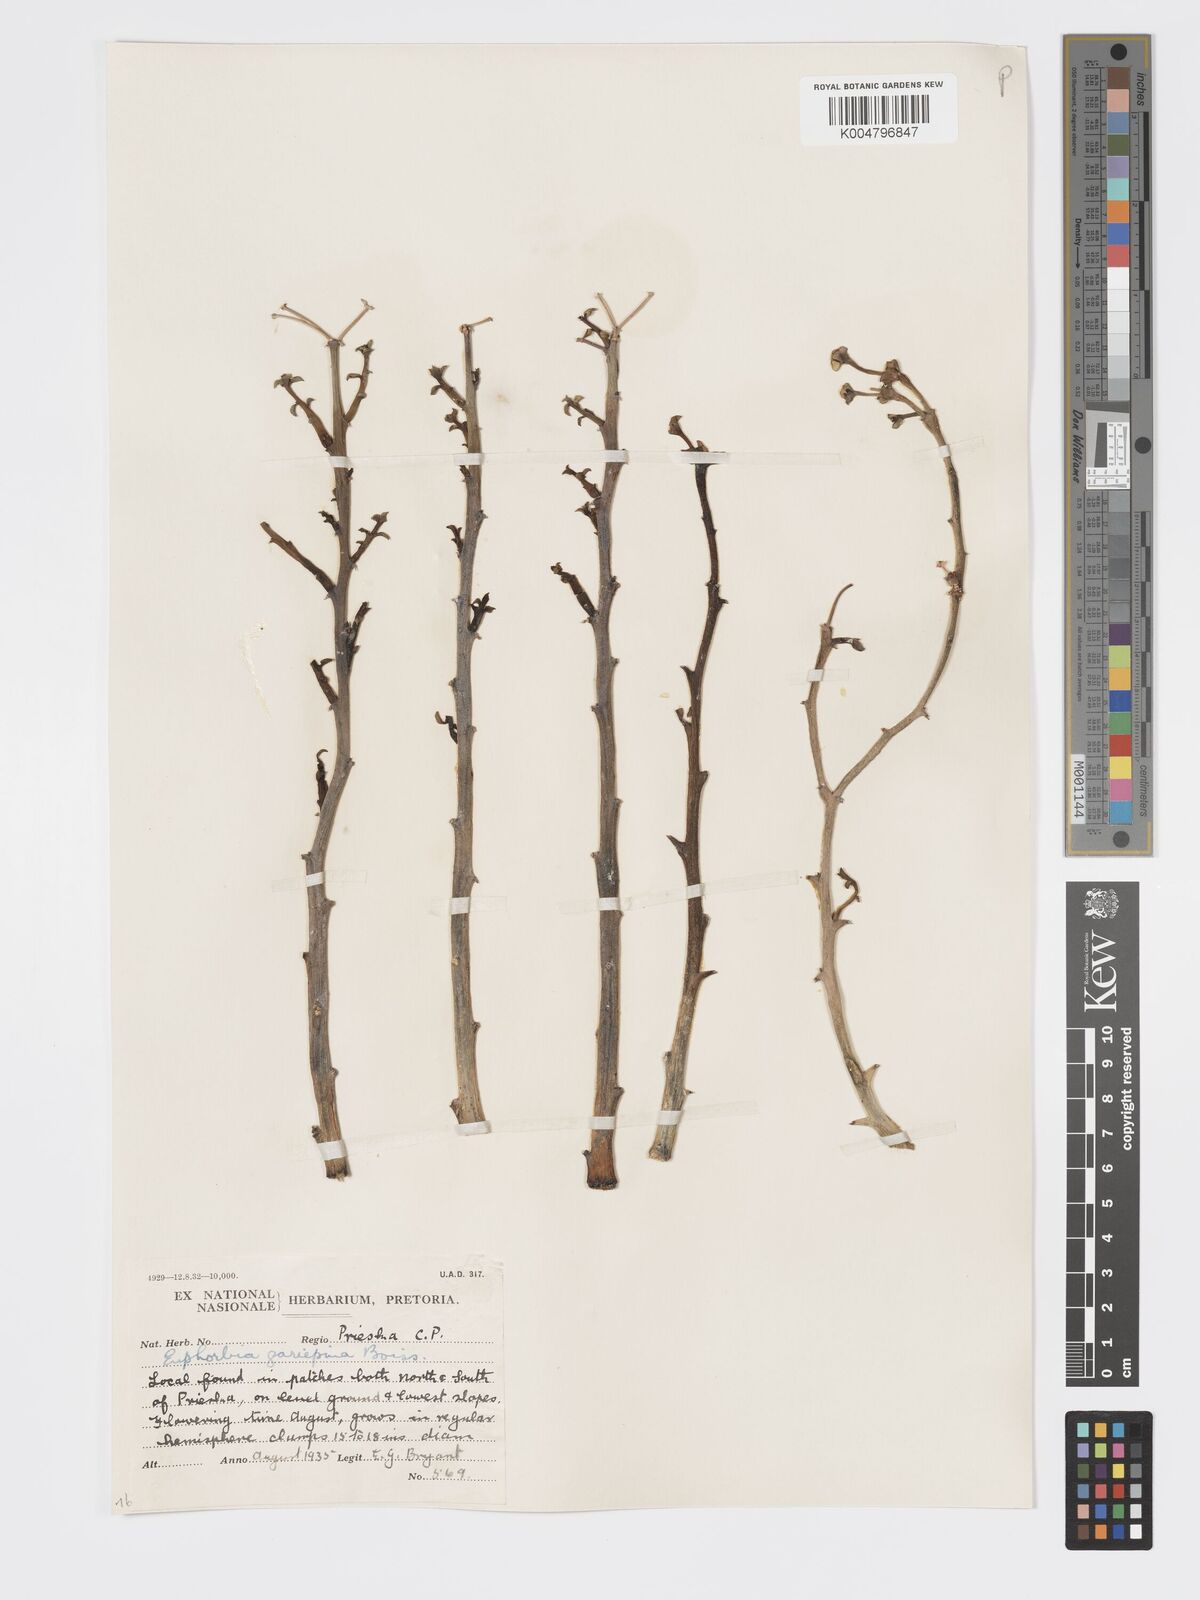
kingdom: Plantae
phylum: Tracheophyta
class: Magnoliopsida
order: Malpighiales
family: Euphorbiaceae
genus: Euphorbia
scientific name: Euphorbia gariepina
